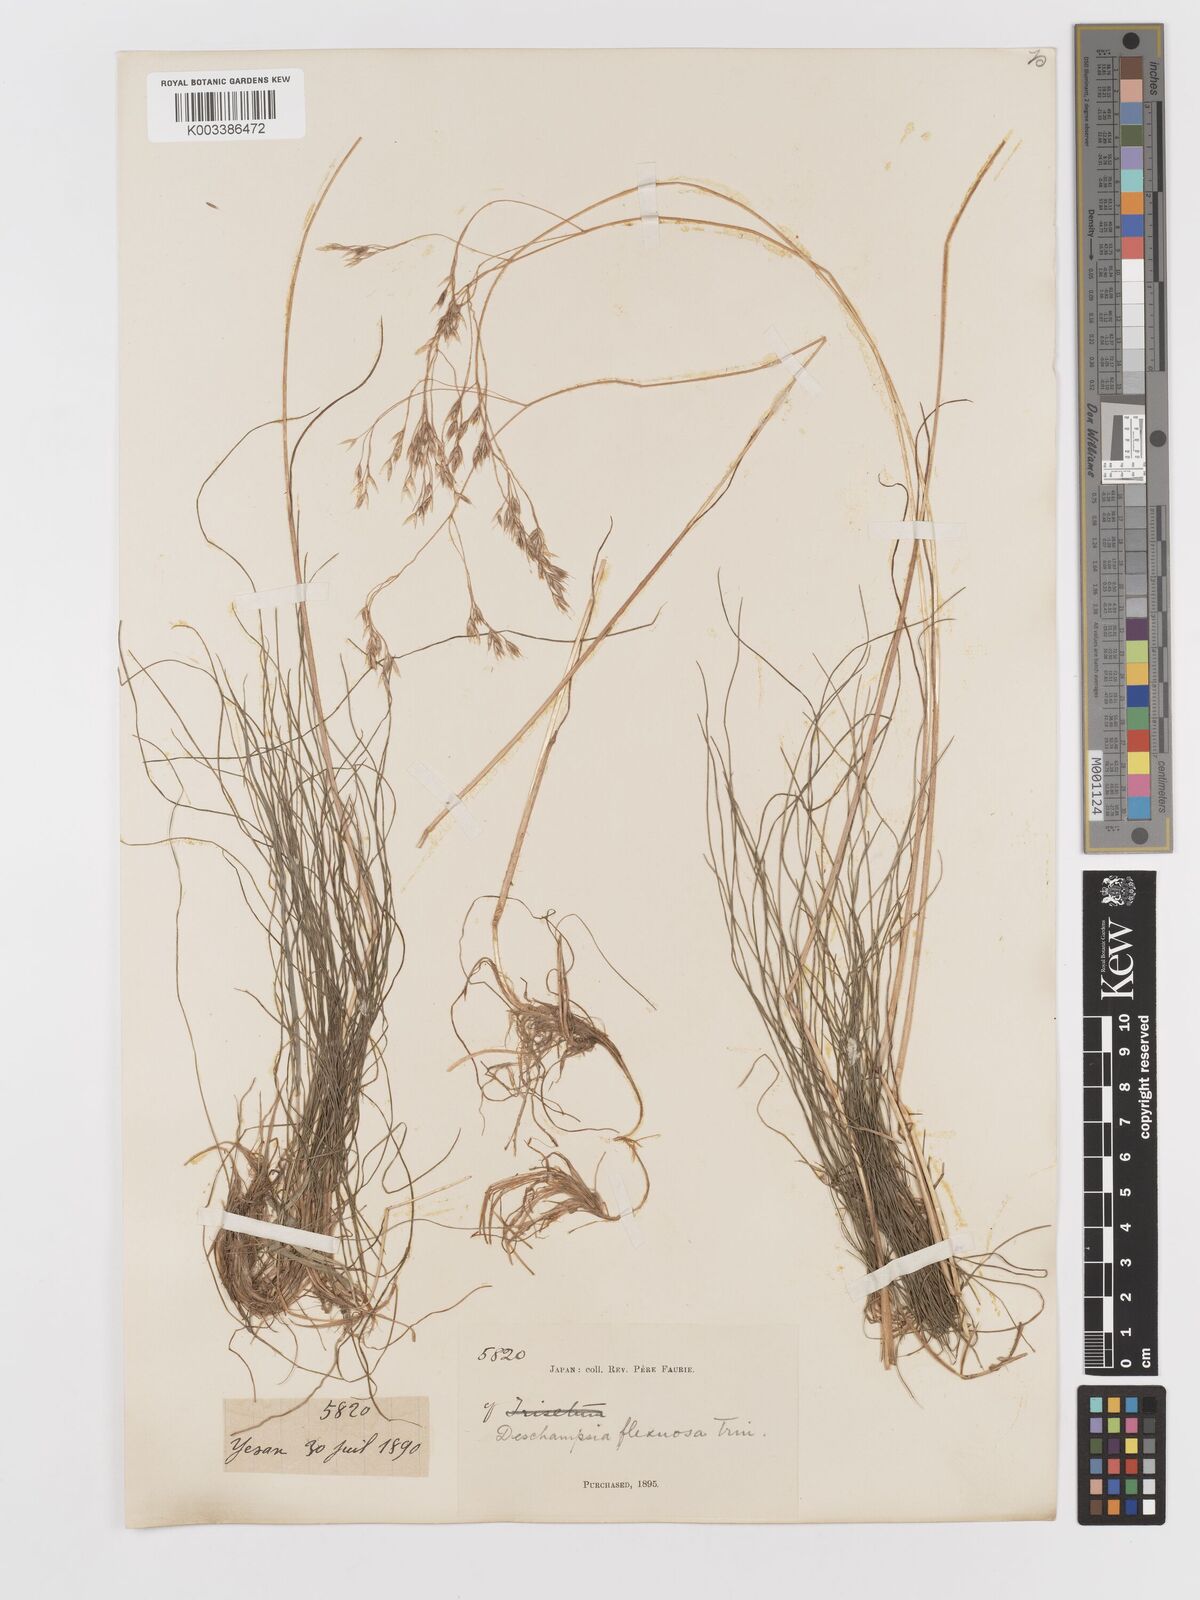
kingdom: Plantae
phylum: Tracheophyta
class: Liliopsida
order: Poales
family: Poaceae
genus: Avenella
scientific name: Avenella flexuosa
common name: Wavy hairgrass
